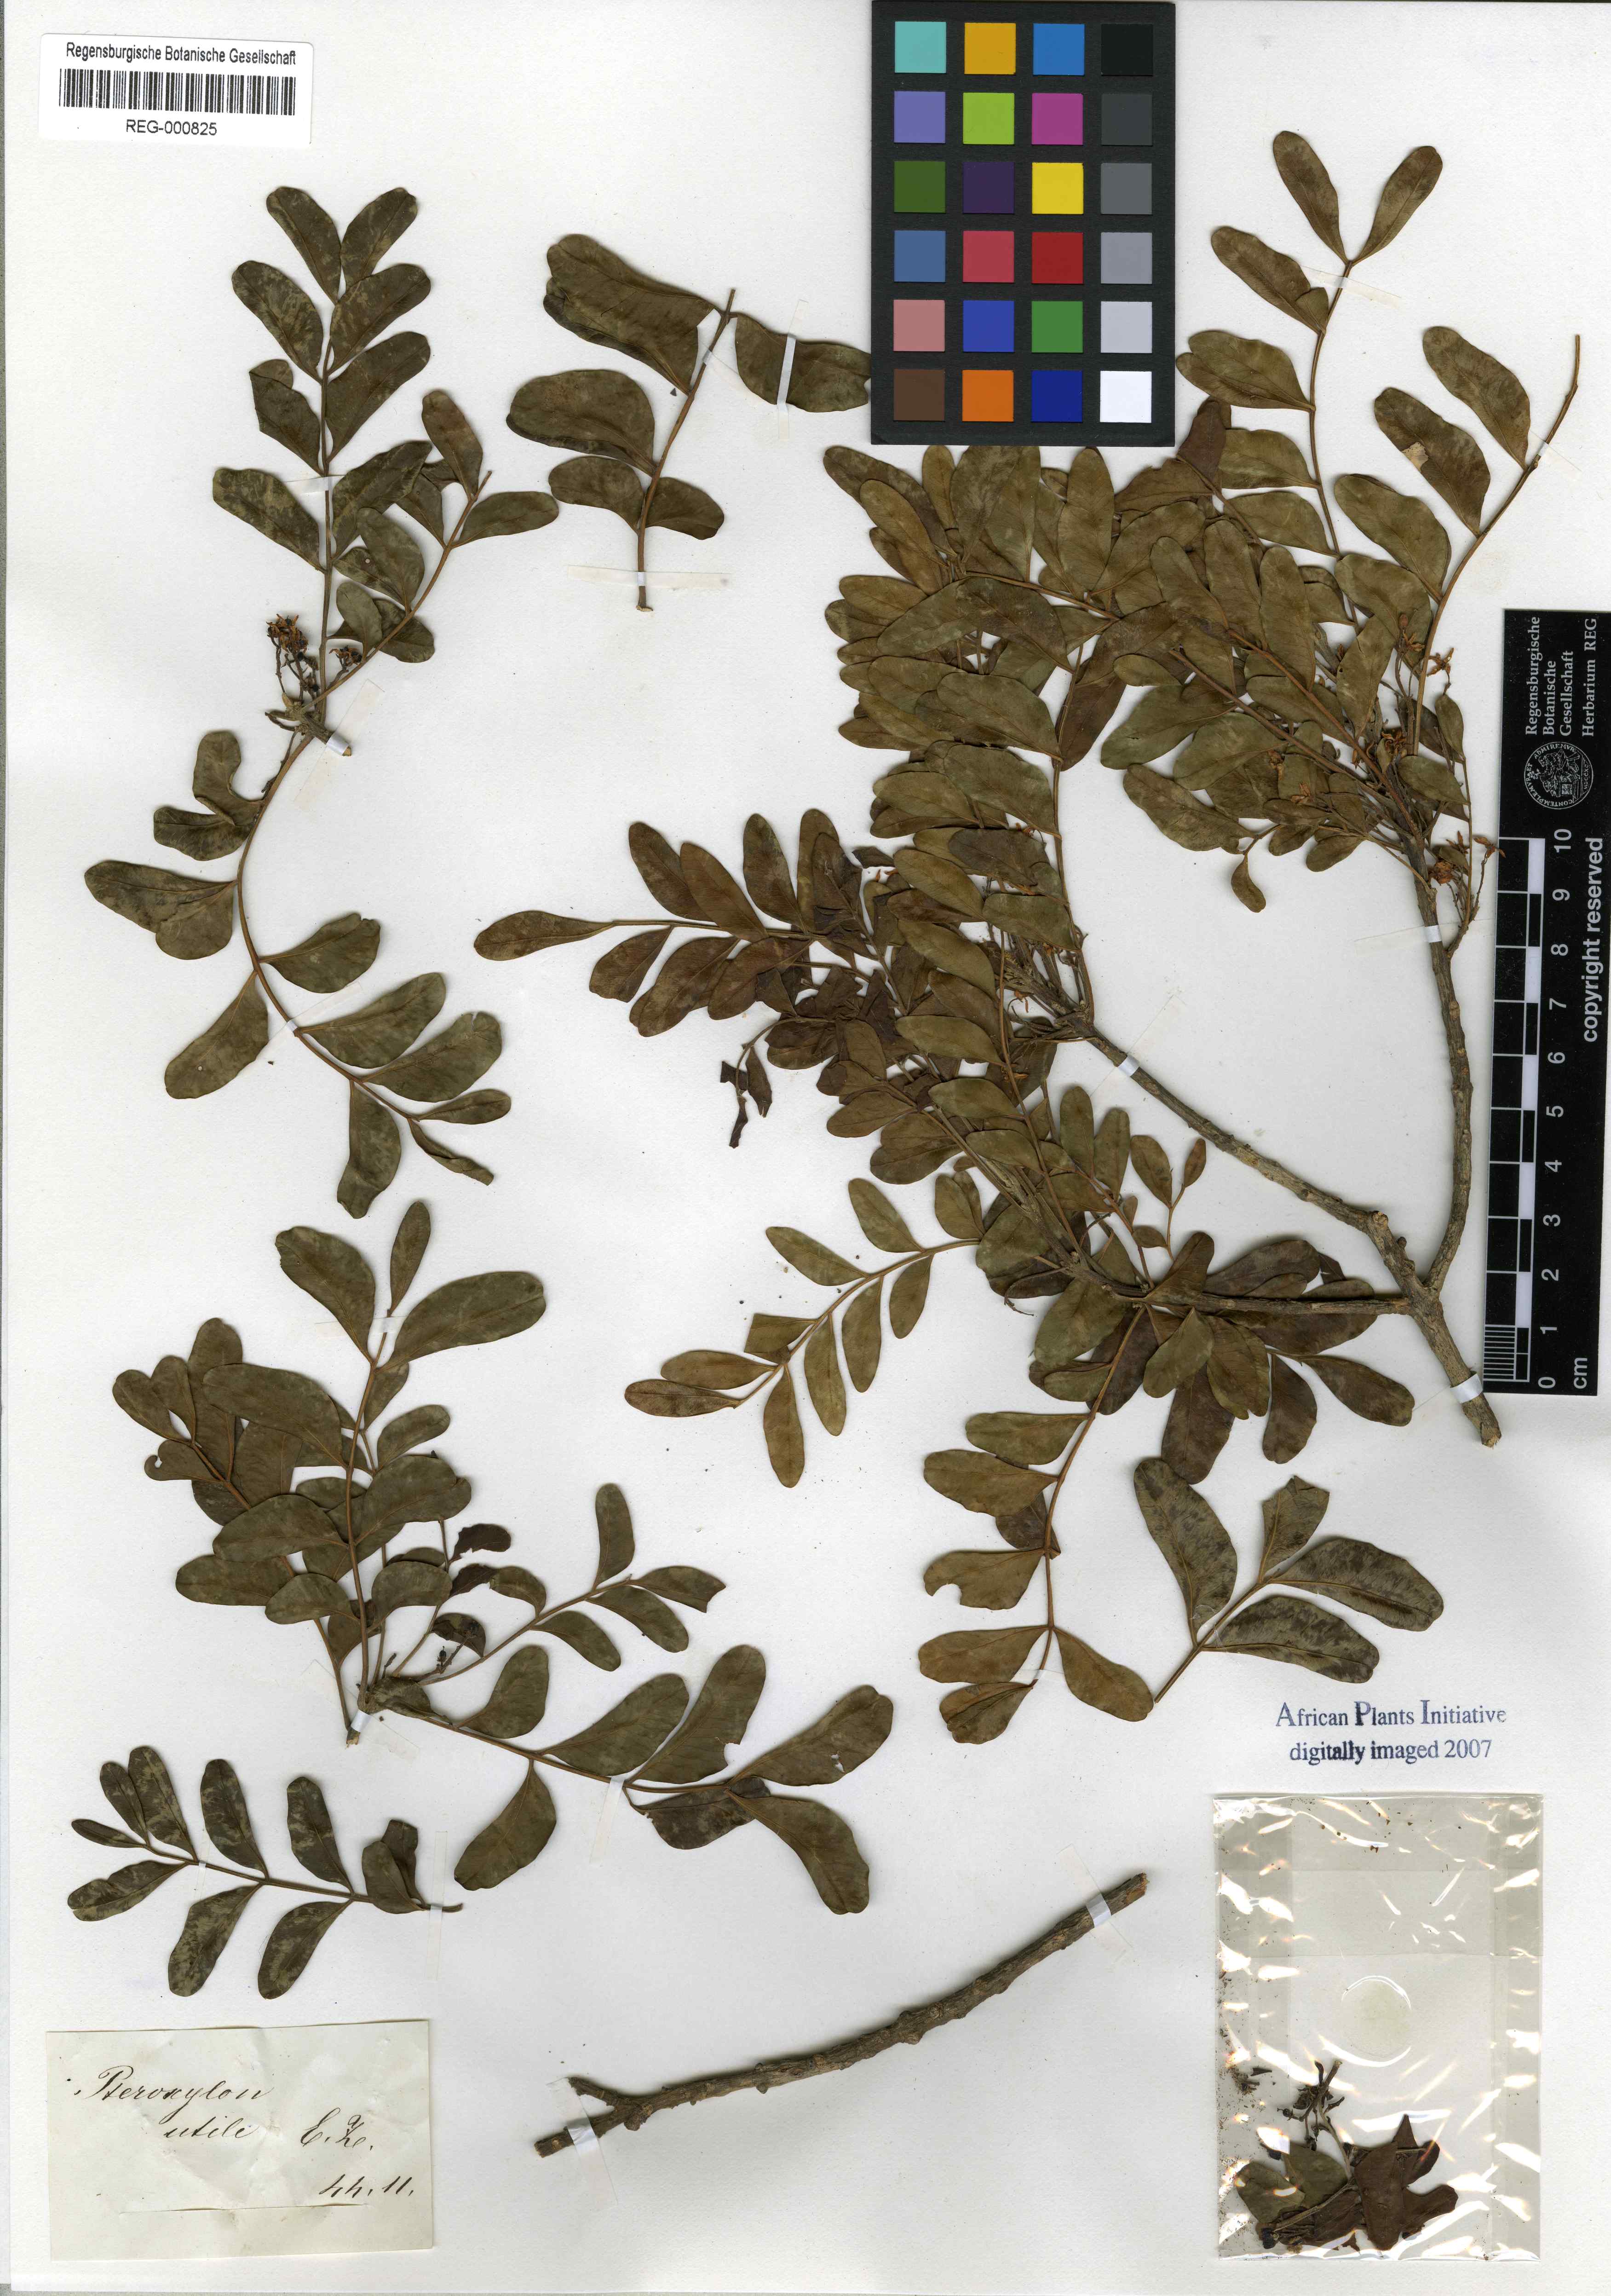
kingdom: Plantae
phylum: Tracheophyta
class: Magnoliopsida
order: Sapindales
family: Rutaceae
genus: Ptaeroxylon
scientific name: Ptaeroxylon obliquum
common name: Sneezewood
